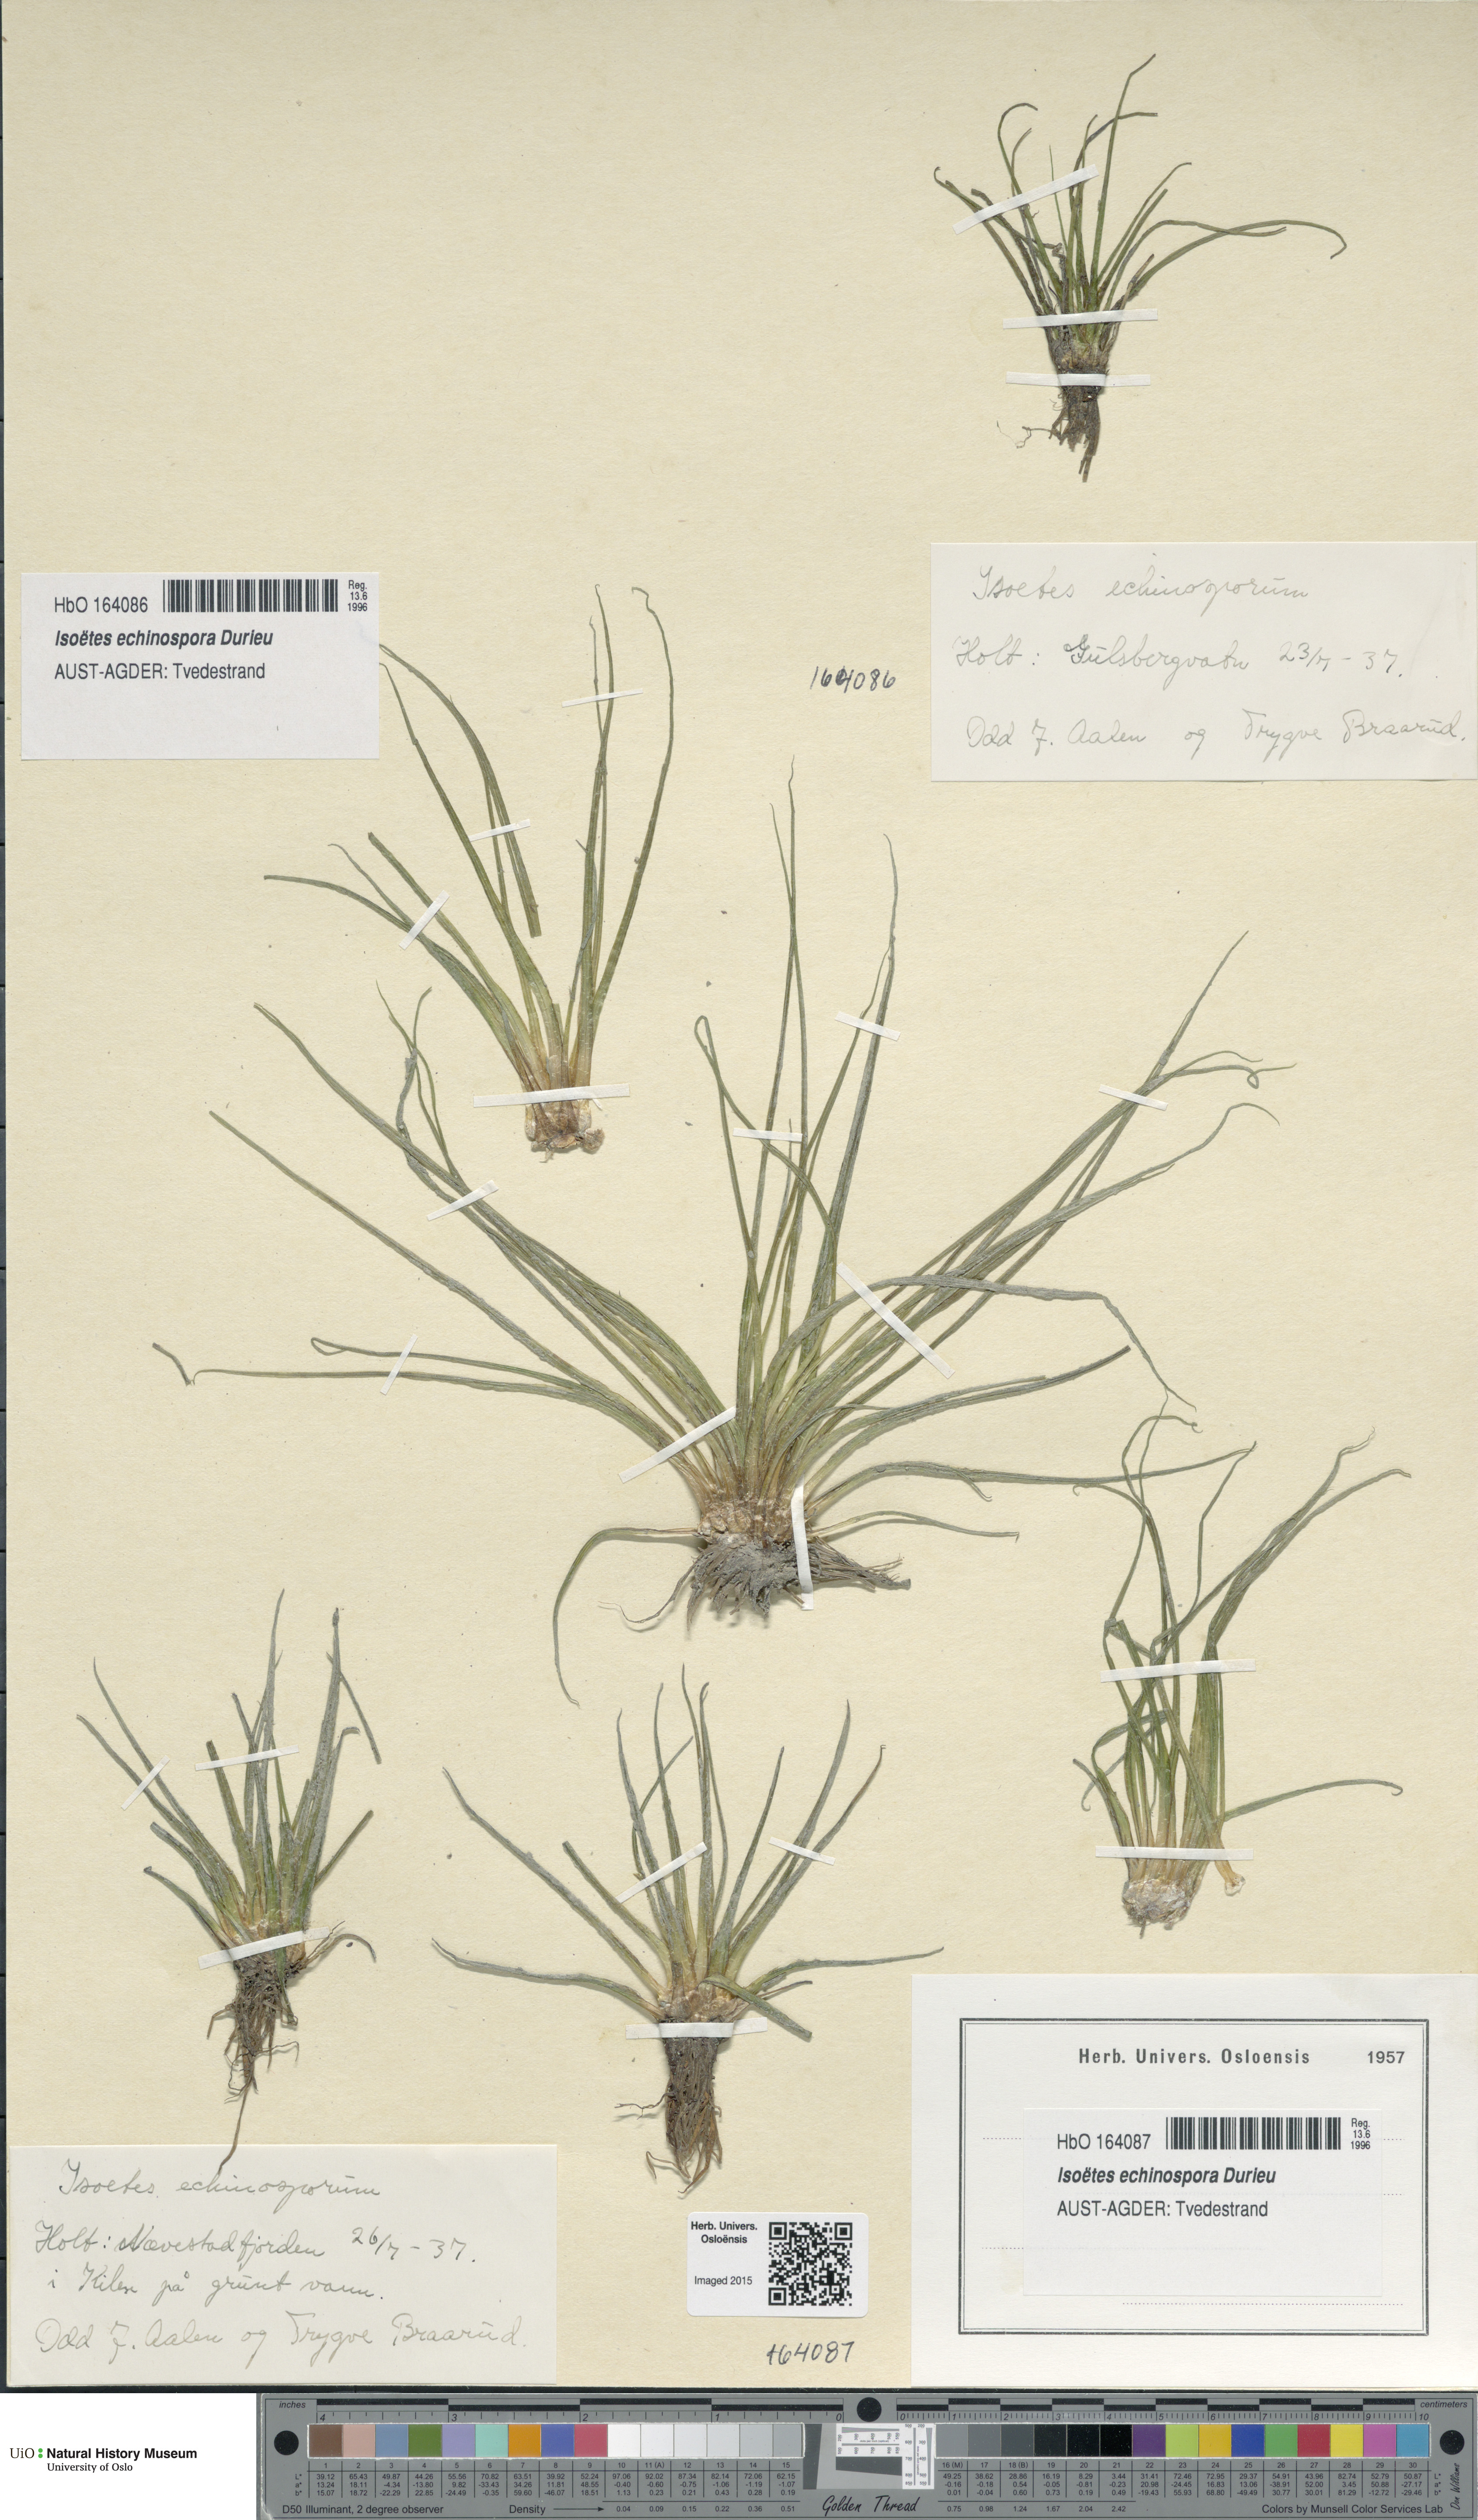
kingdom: Plantae
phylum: Tracheophyta
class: Lycopodiopsida
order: Isoetales
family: Isoetaceae
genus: Isoetes
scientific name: Isoetes echinospora
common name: Spring quillwort
